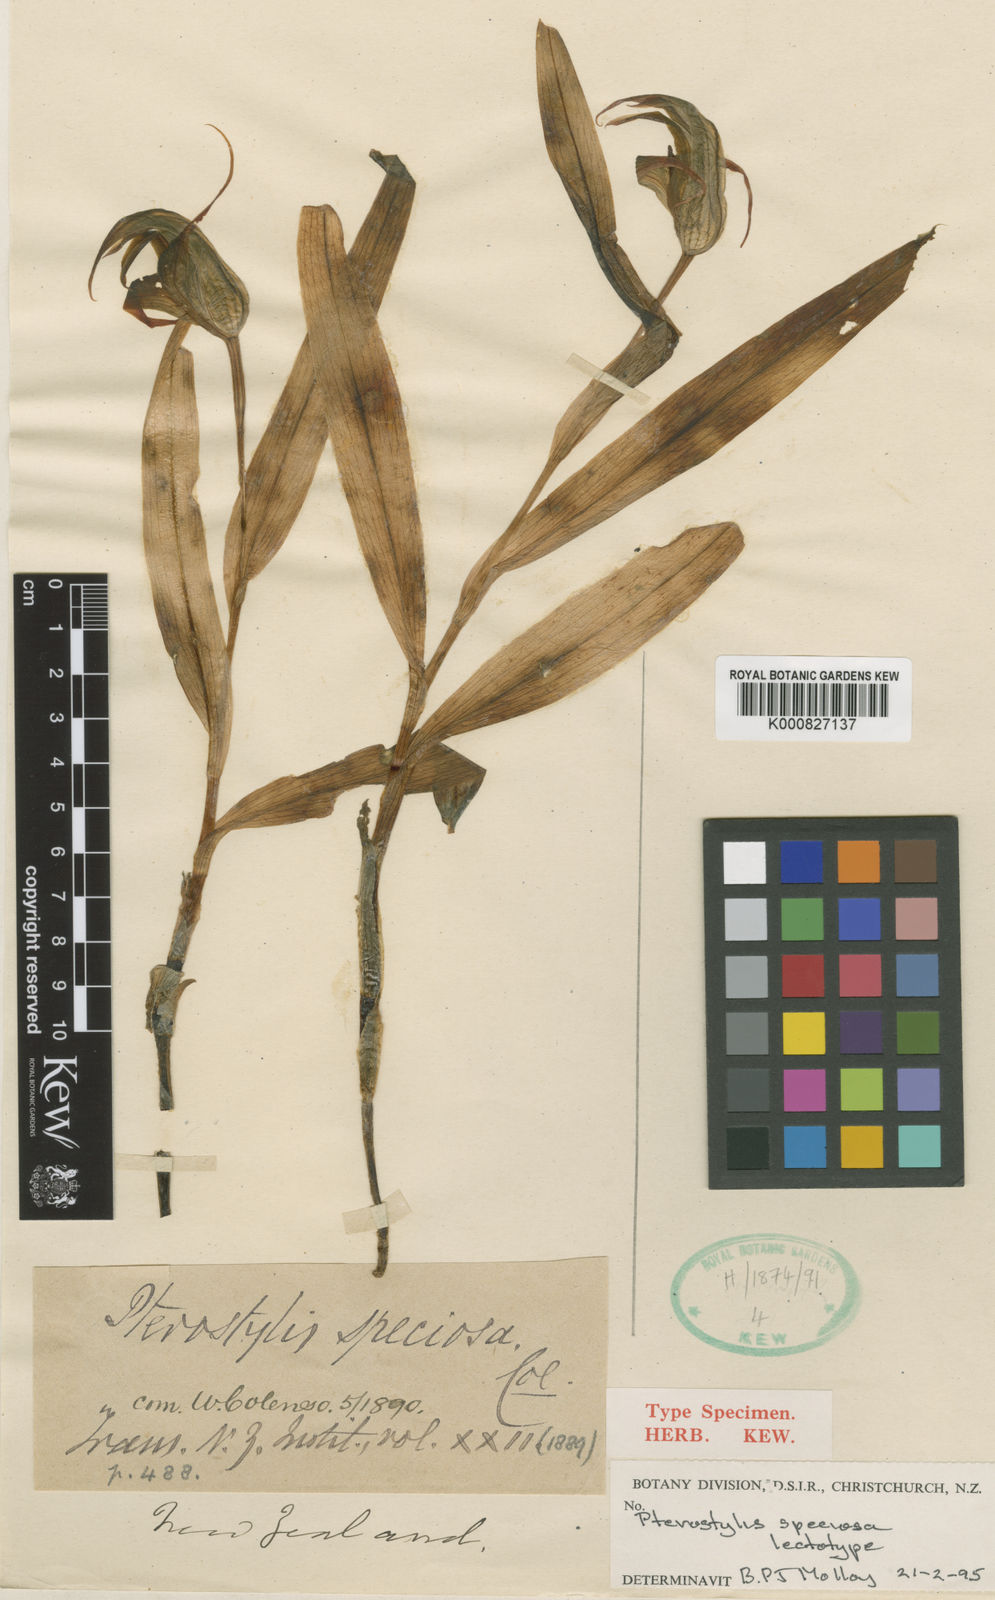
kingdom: Plantae
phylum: Tracheophyta
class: Liliopsida
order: Asparagales
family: Orchidaceae
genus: Pterostylis
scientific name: Pterostylis banksii
